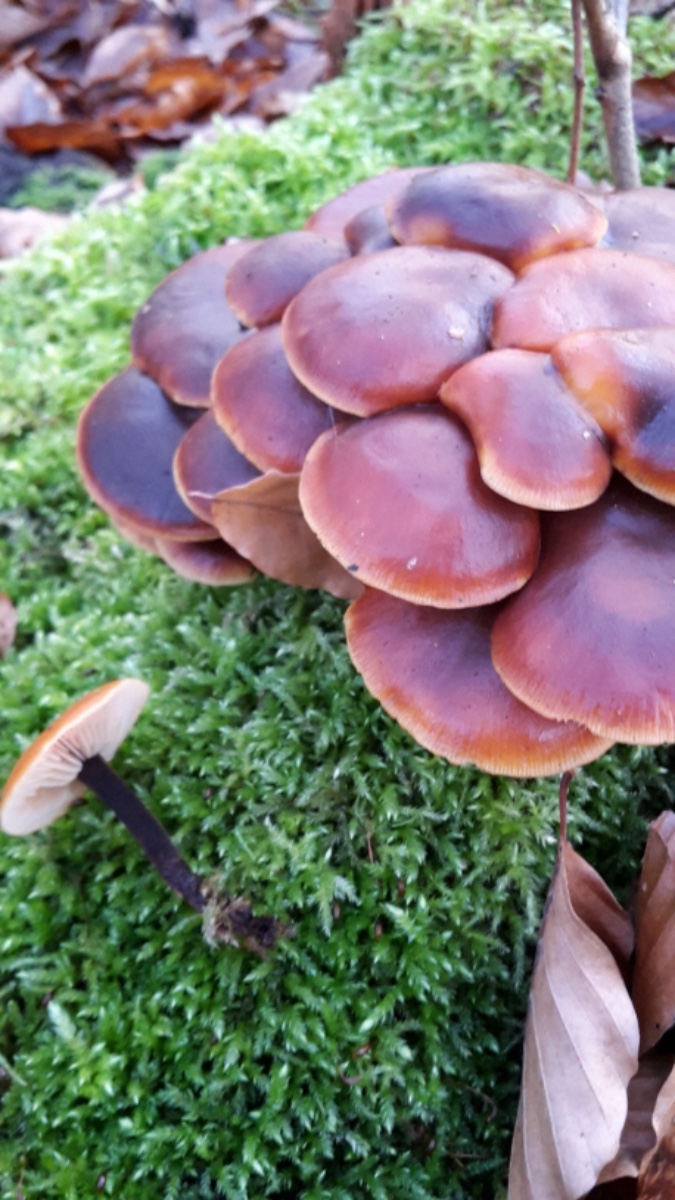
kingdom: Fungi
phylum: Basidiomycota
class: Agaricomycetes
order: Agaricales
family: Physalacriaceae
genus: Flammulina
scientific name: Flammulina velutipes
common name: gul fløjlsfod
